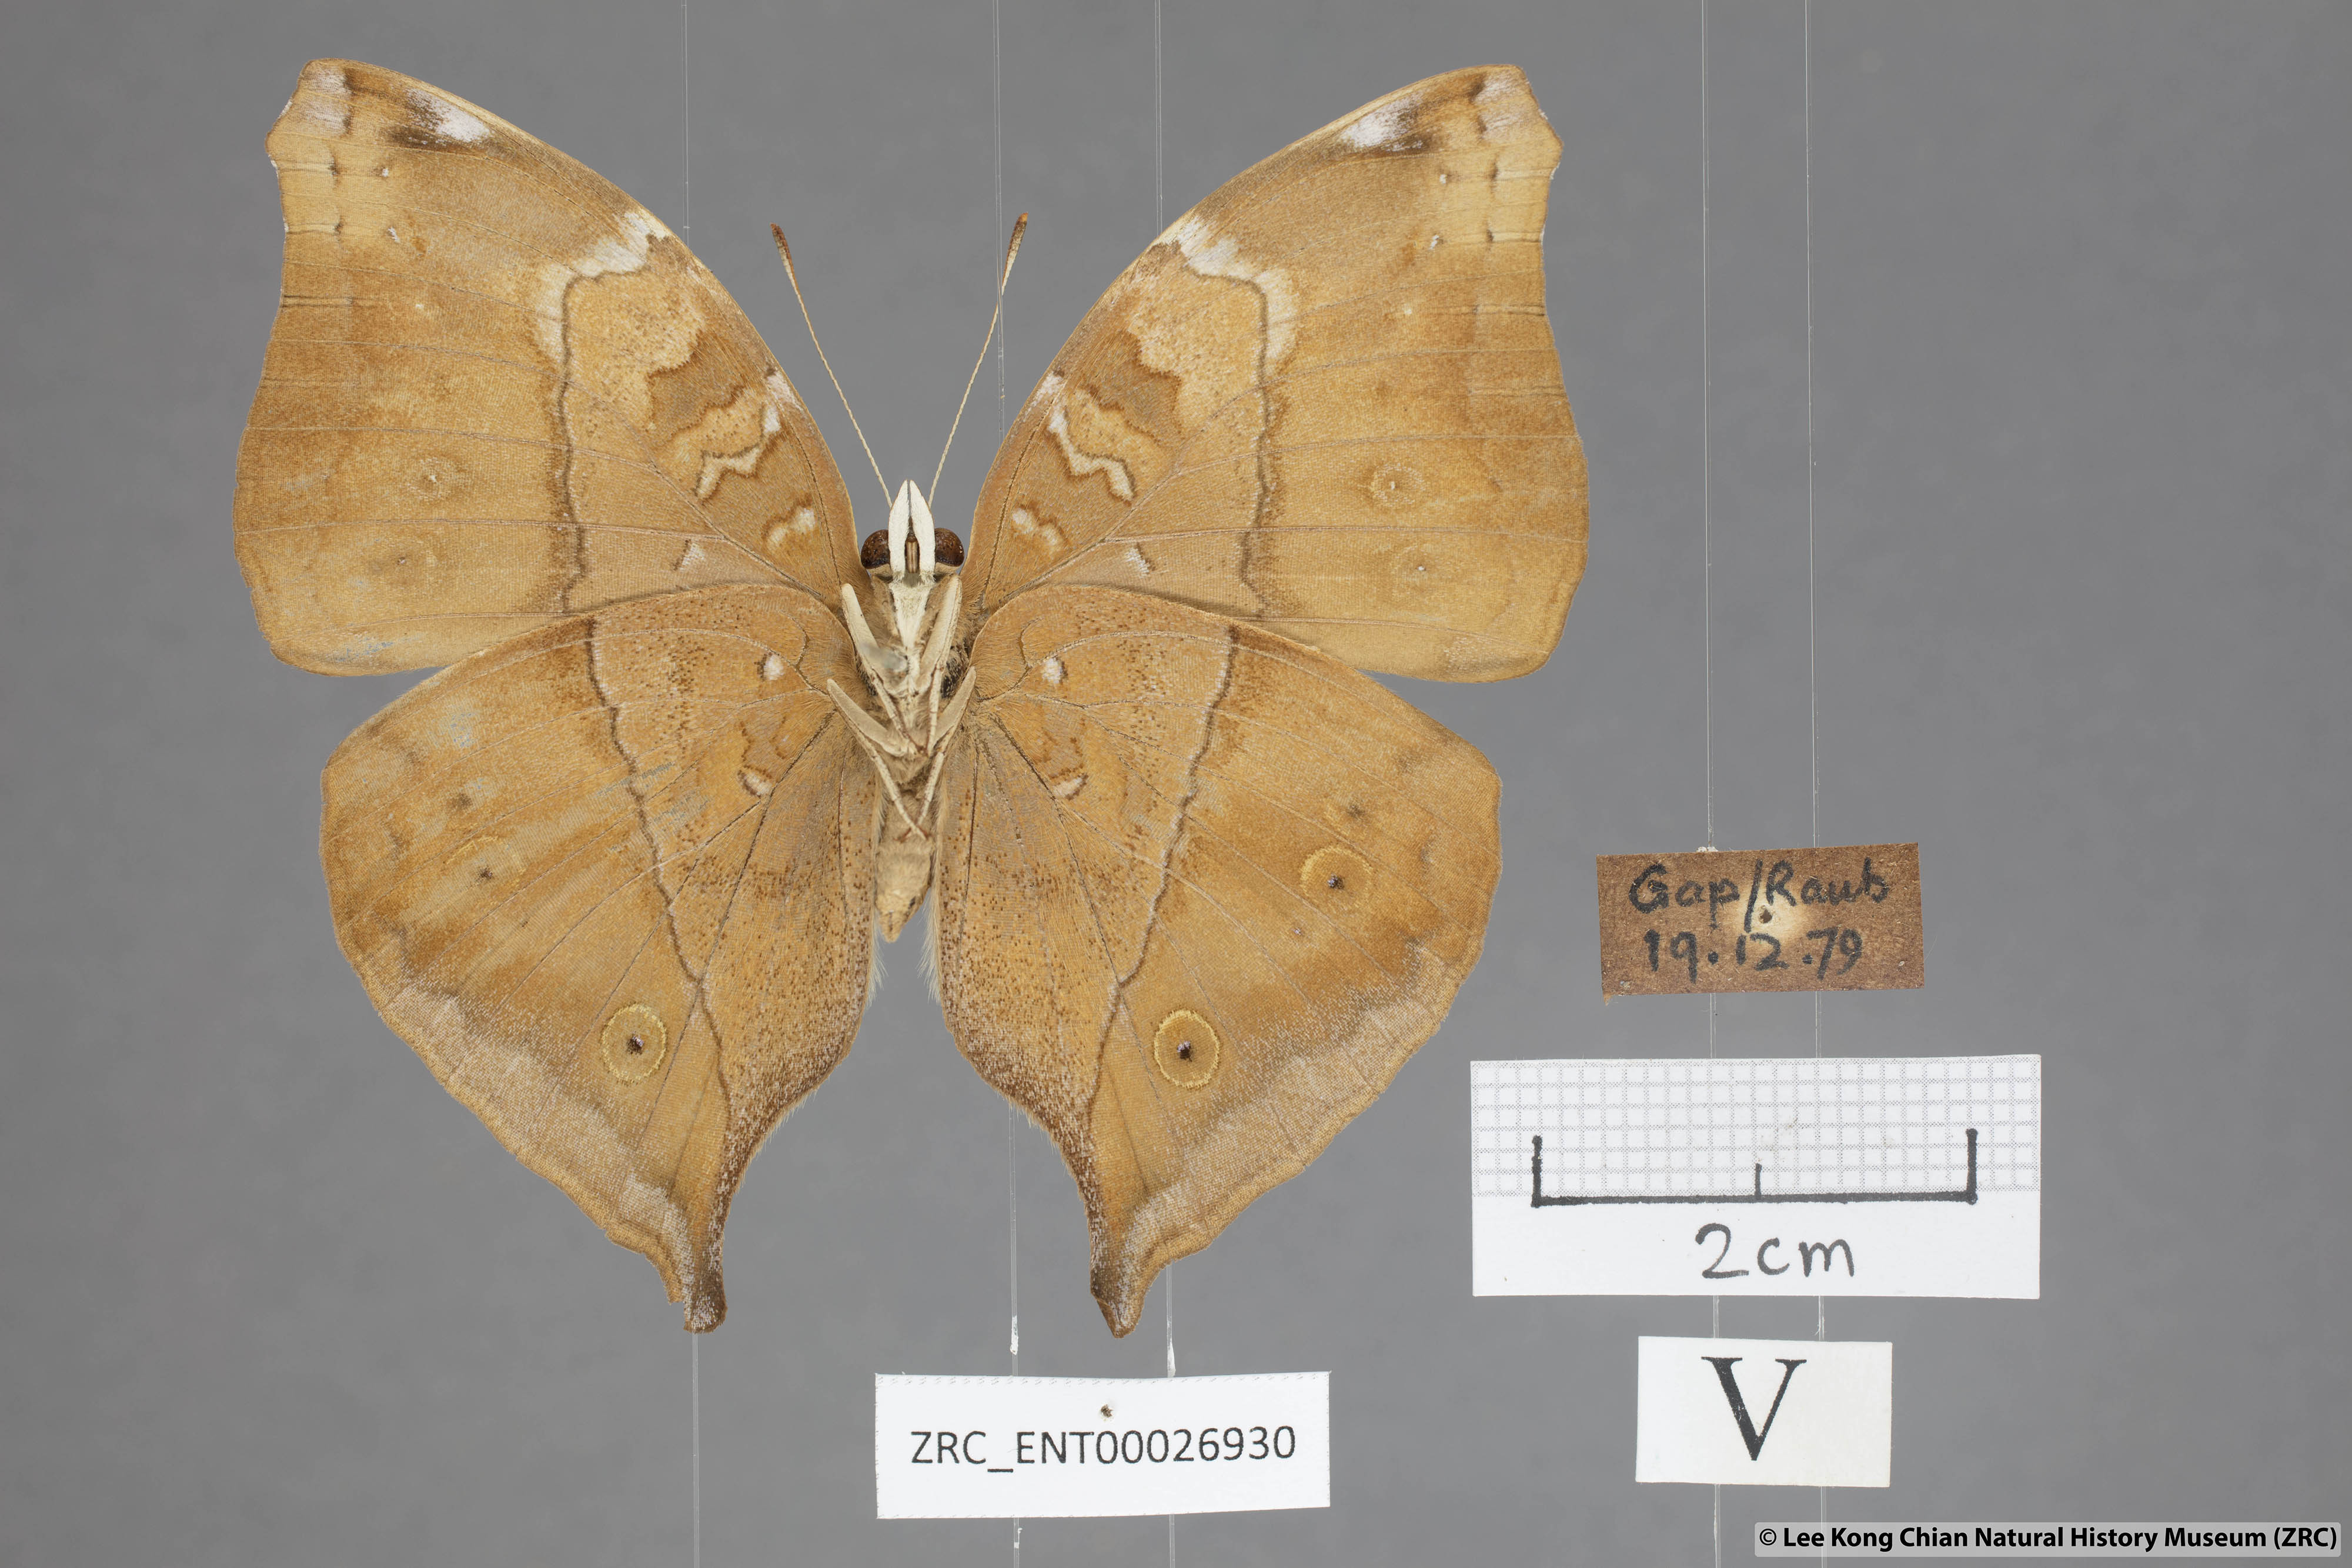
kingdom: Animalia
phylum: Arthropoda
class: Insecta
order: Lepidoptera
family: Nymphalidae
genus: Doleschallia
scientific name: Doleschallia bisaltide
